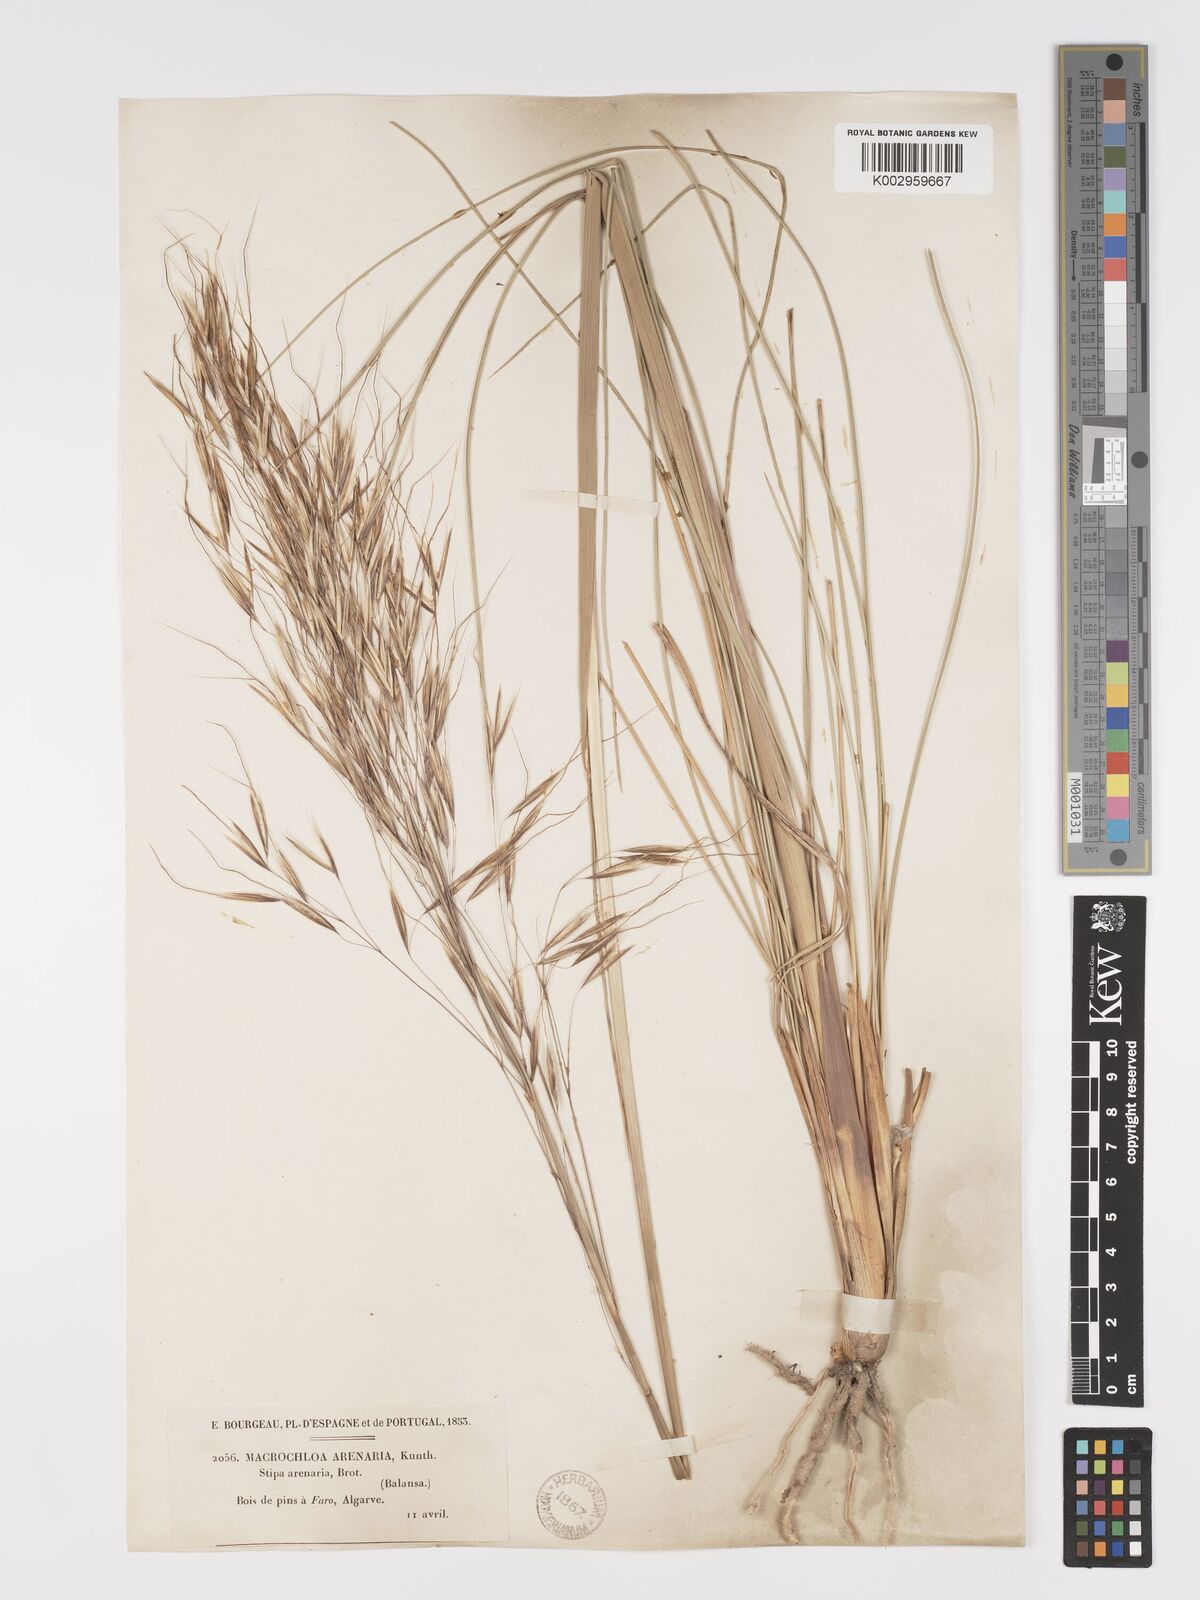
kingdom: Plantae
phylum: Tracheophyta
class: Liliopsida
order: Poales
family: Poaceae
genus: Celtica
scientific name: Celtica gigantea
